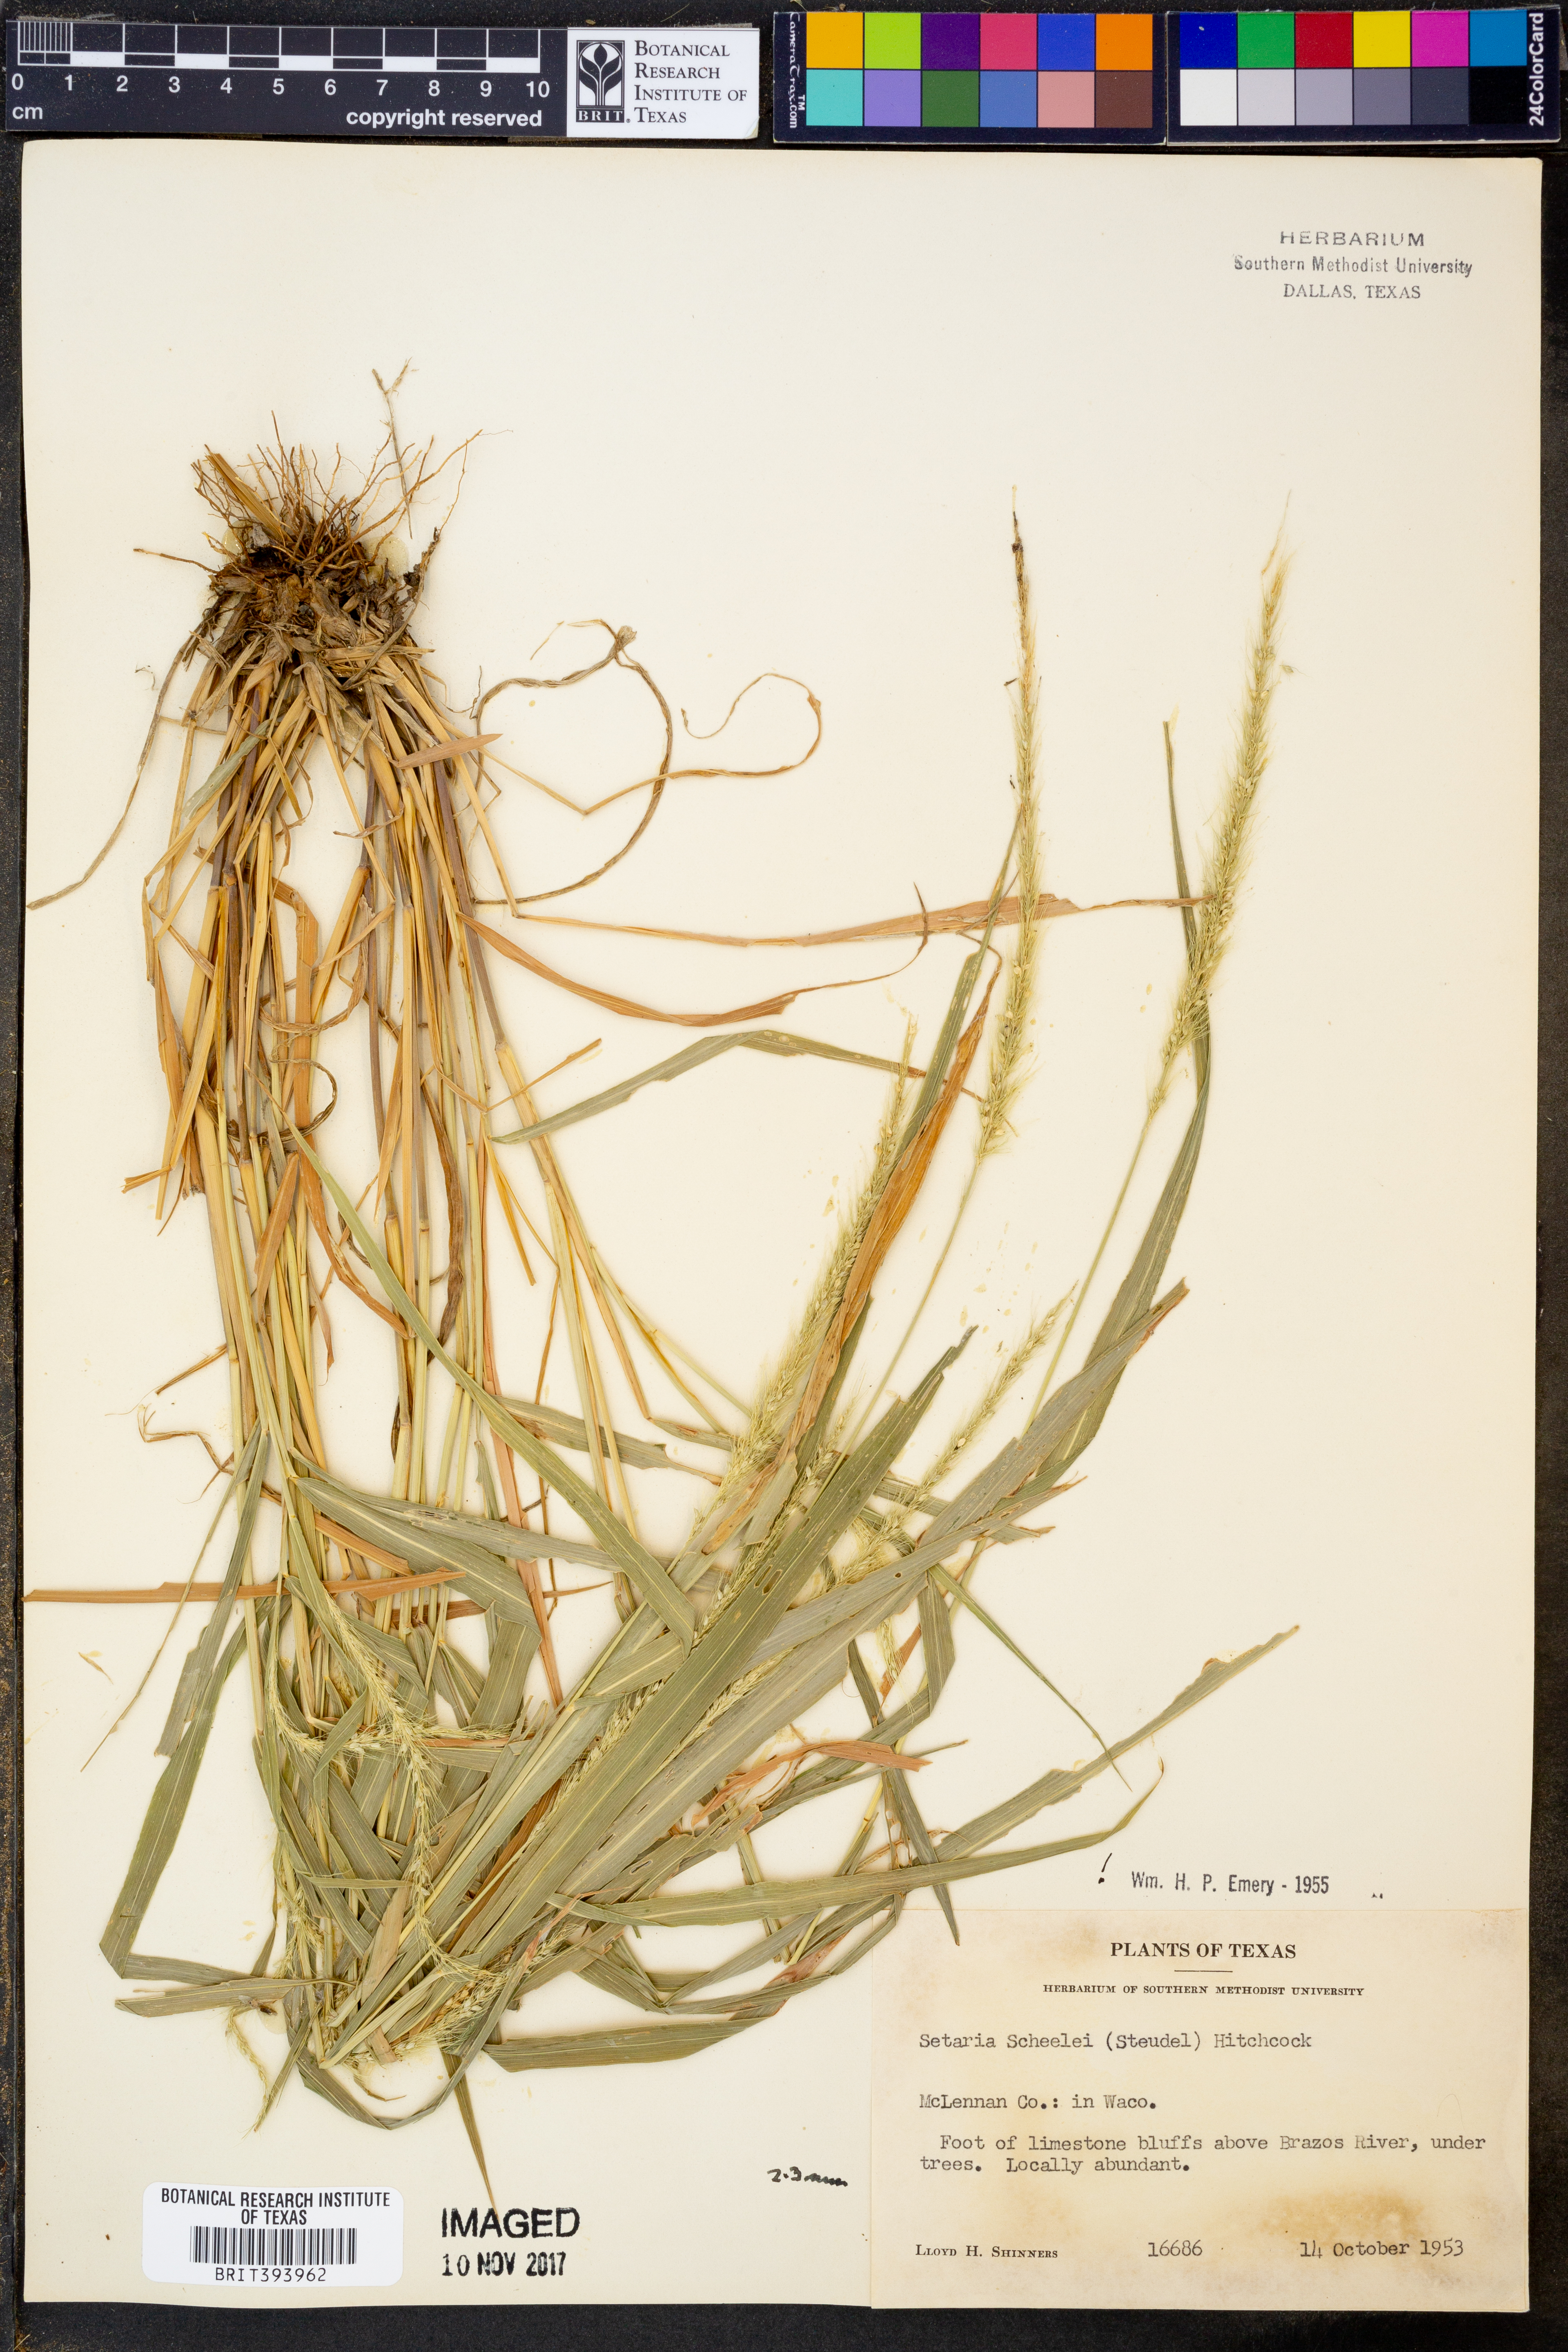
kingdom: Plantae
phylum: Tracheophyta
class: Liliopsida
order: Poales
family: Poaceae
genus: Setaria
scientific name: Setaria scheelei
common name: Southwestern bristle grass
